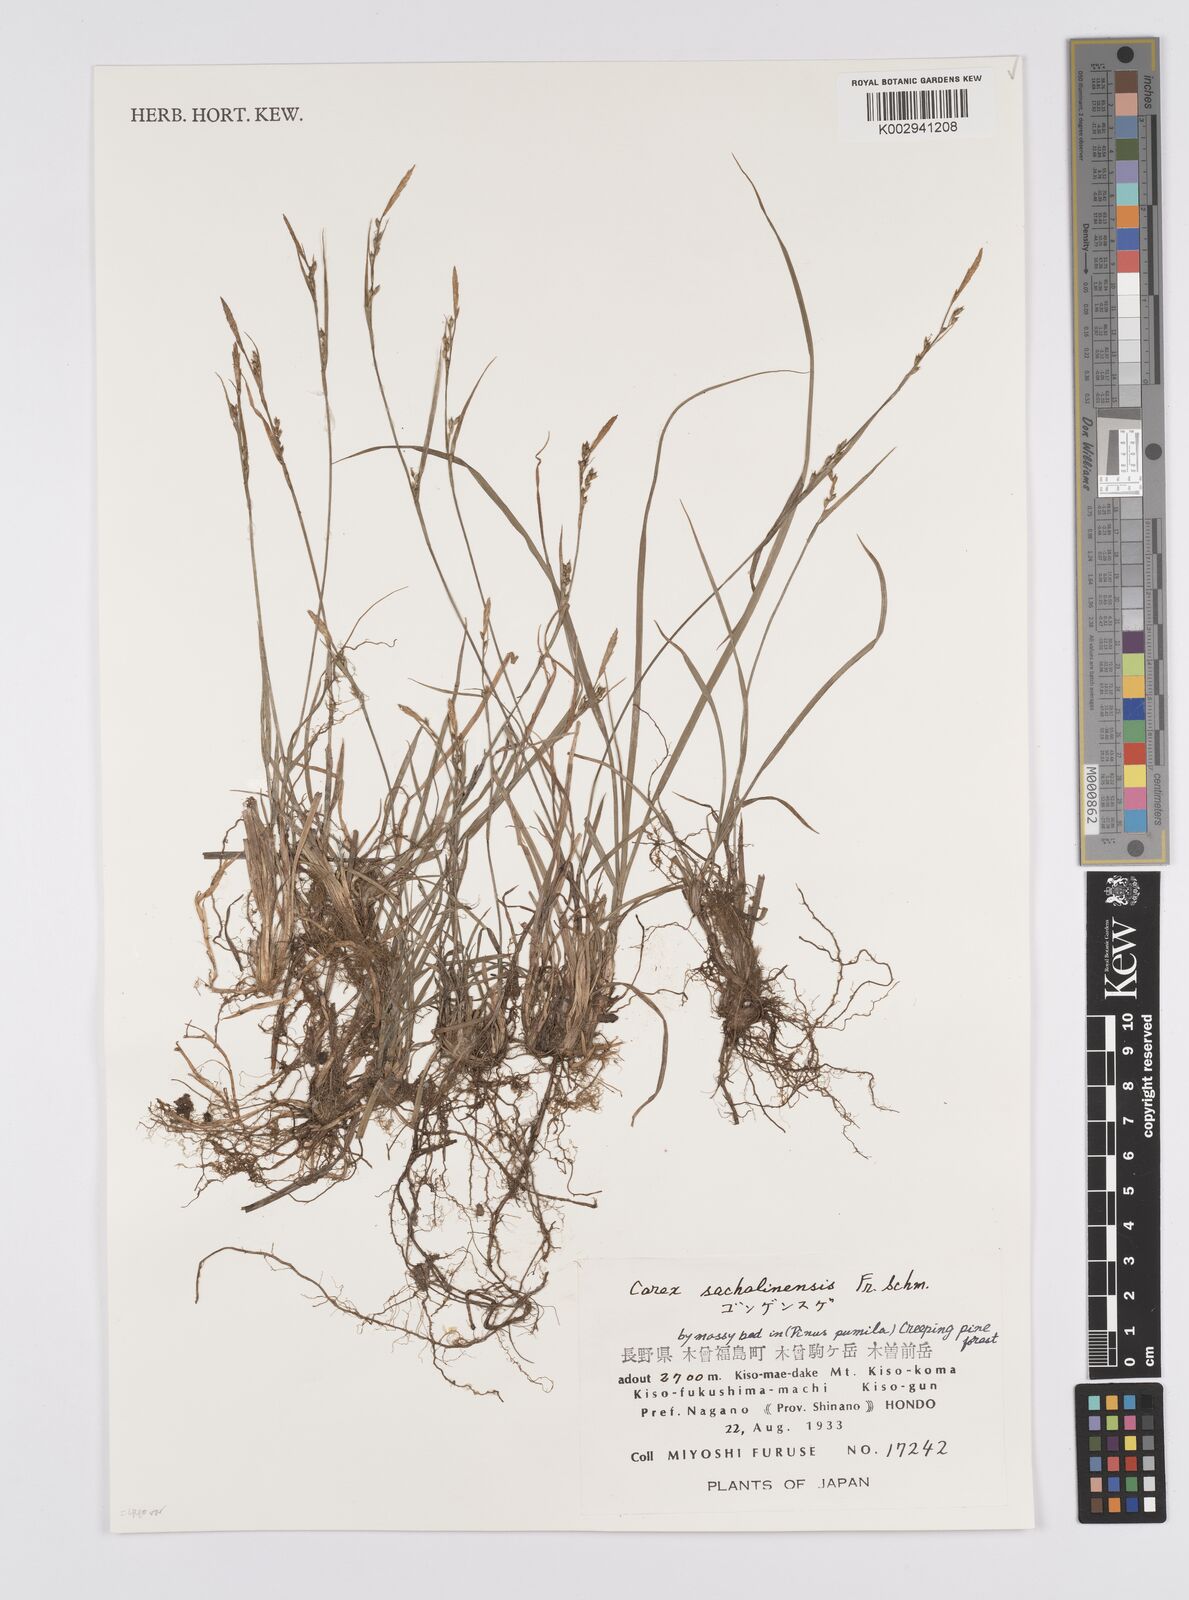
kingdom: Plantae
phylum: Tracheophyta
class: Liliopsida
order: Poales
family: Cyperaceae
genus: Carex
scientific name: Carex pisiformis
